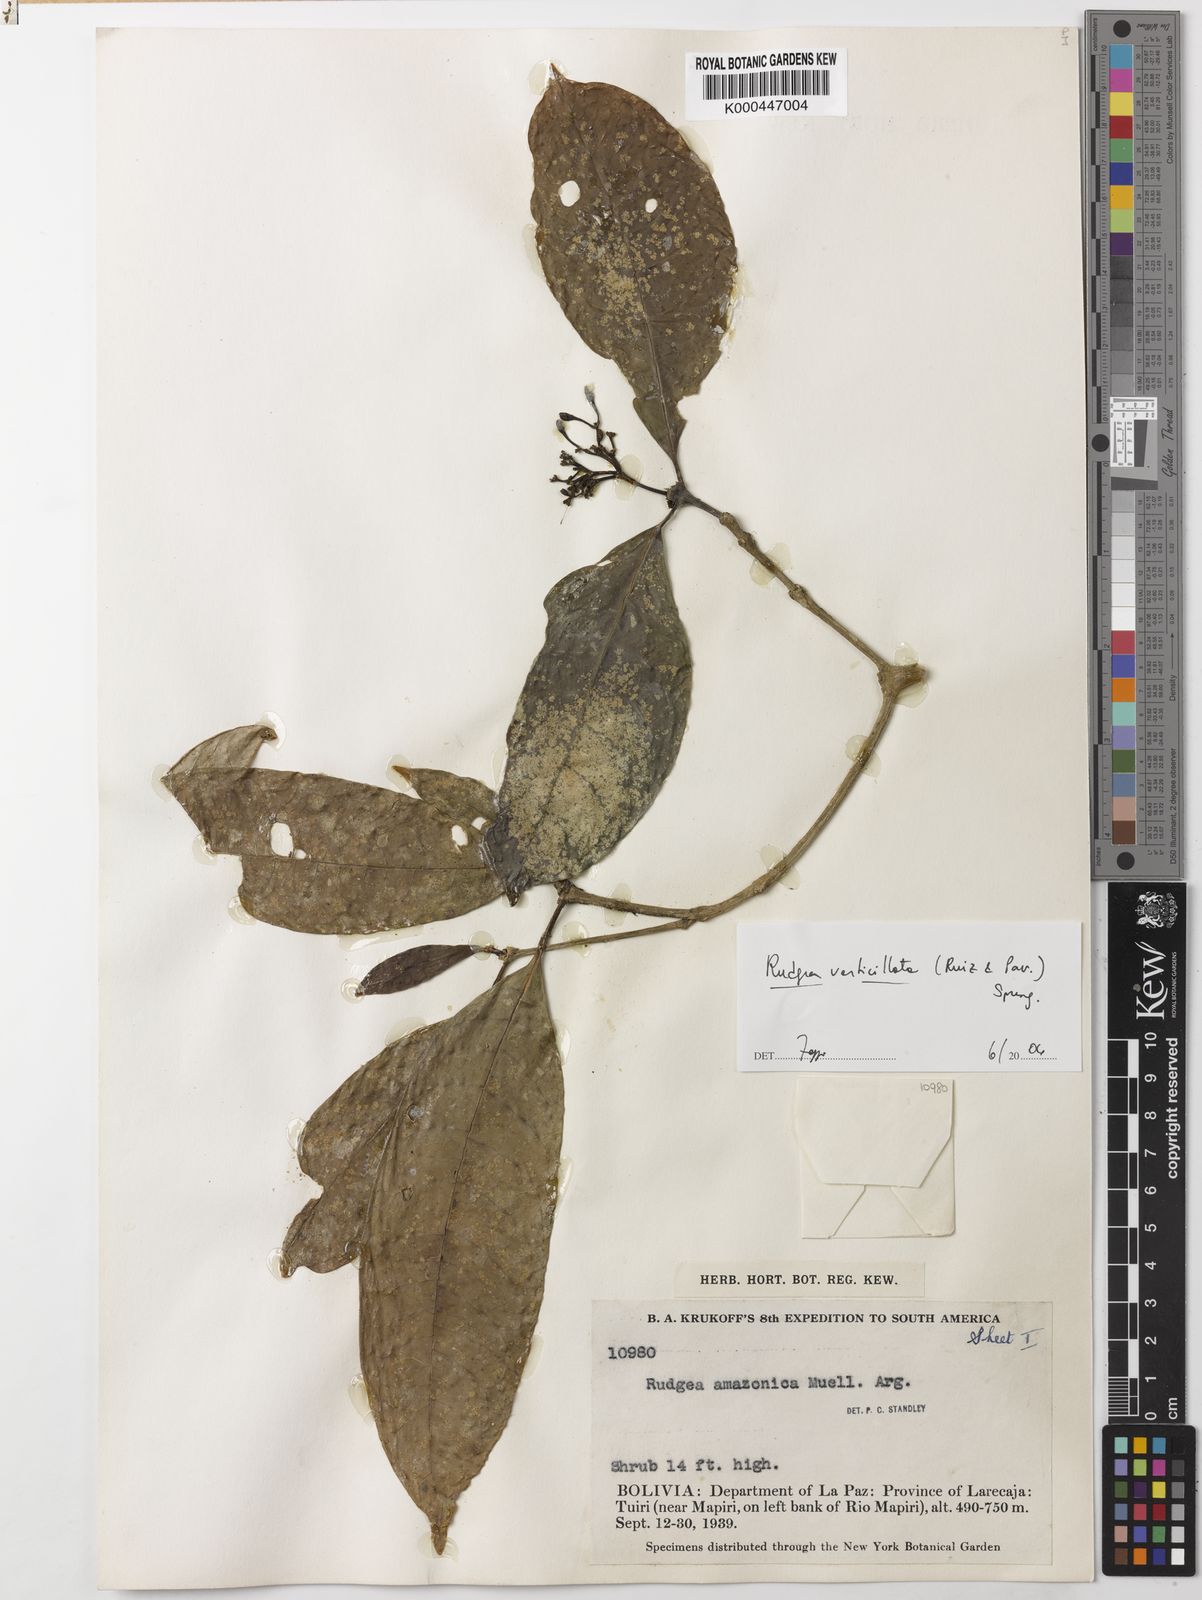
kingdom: Plantae
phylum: Tracheophyta
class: Magnoliopsida
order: Gentianales
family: Rubiaceae
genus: Rudgea
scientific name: Rudgea verticillata
